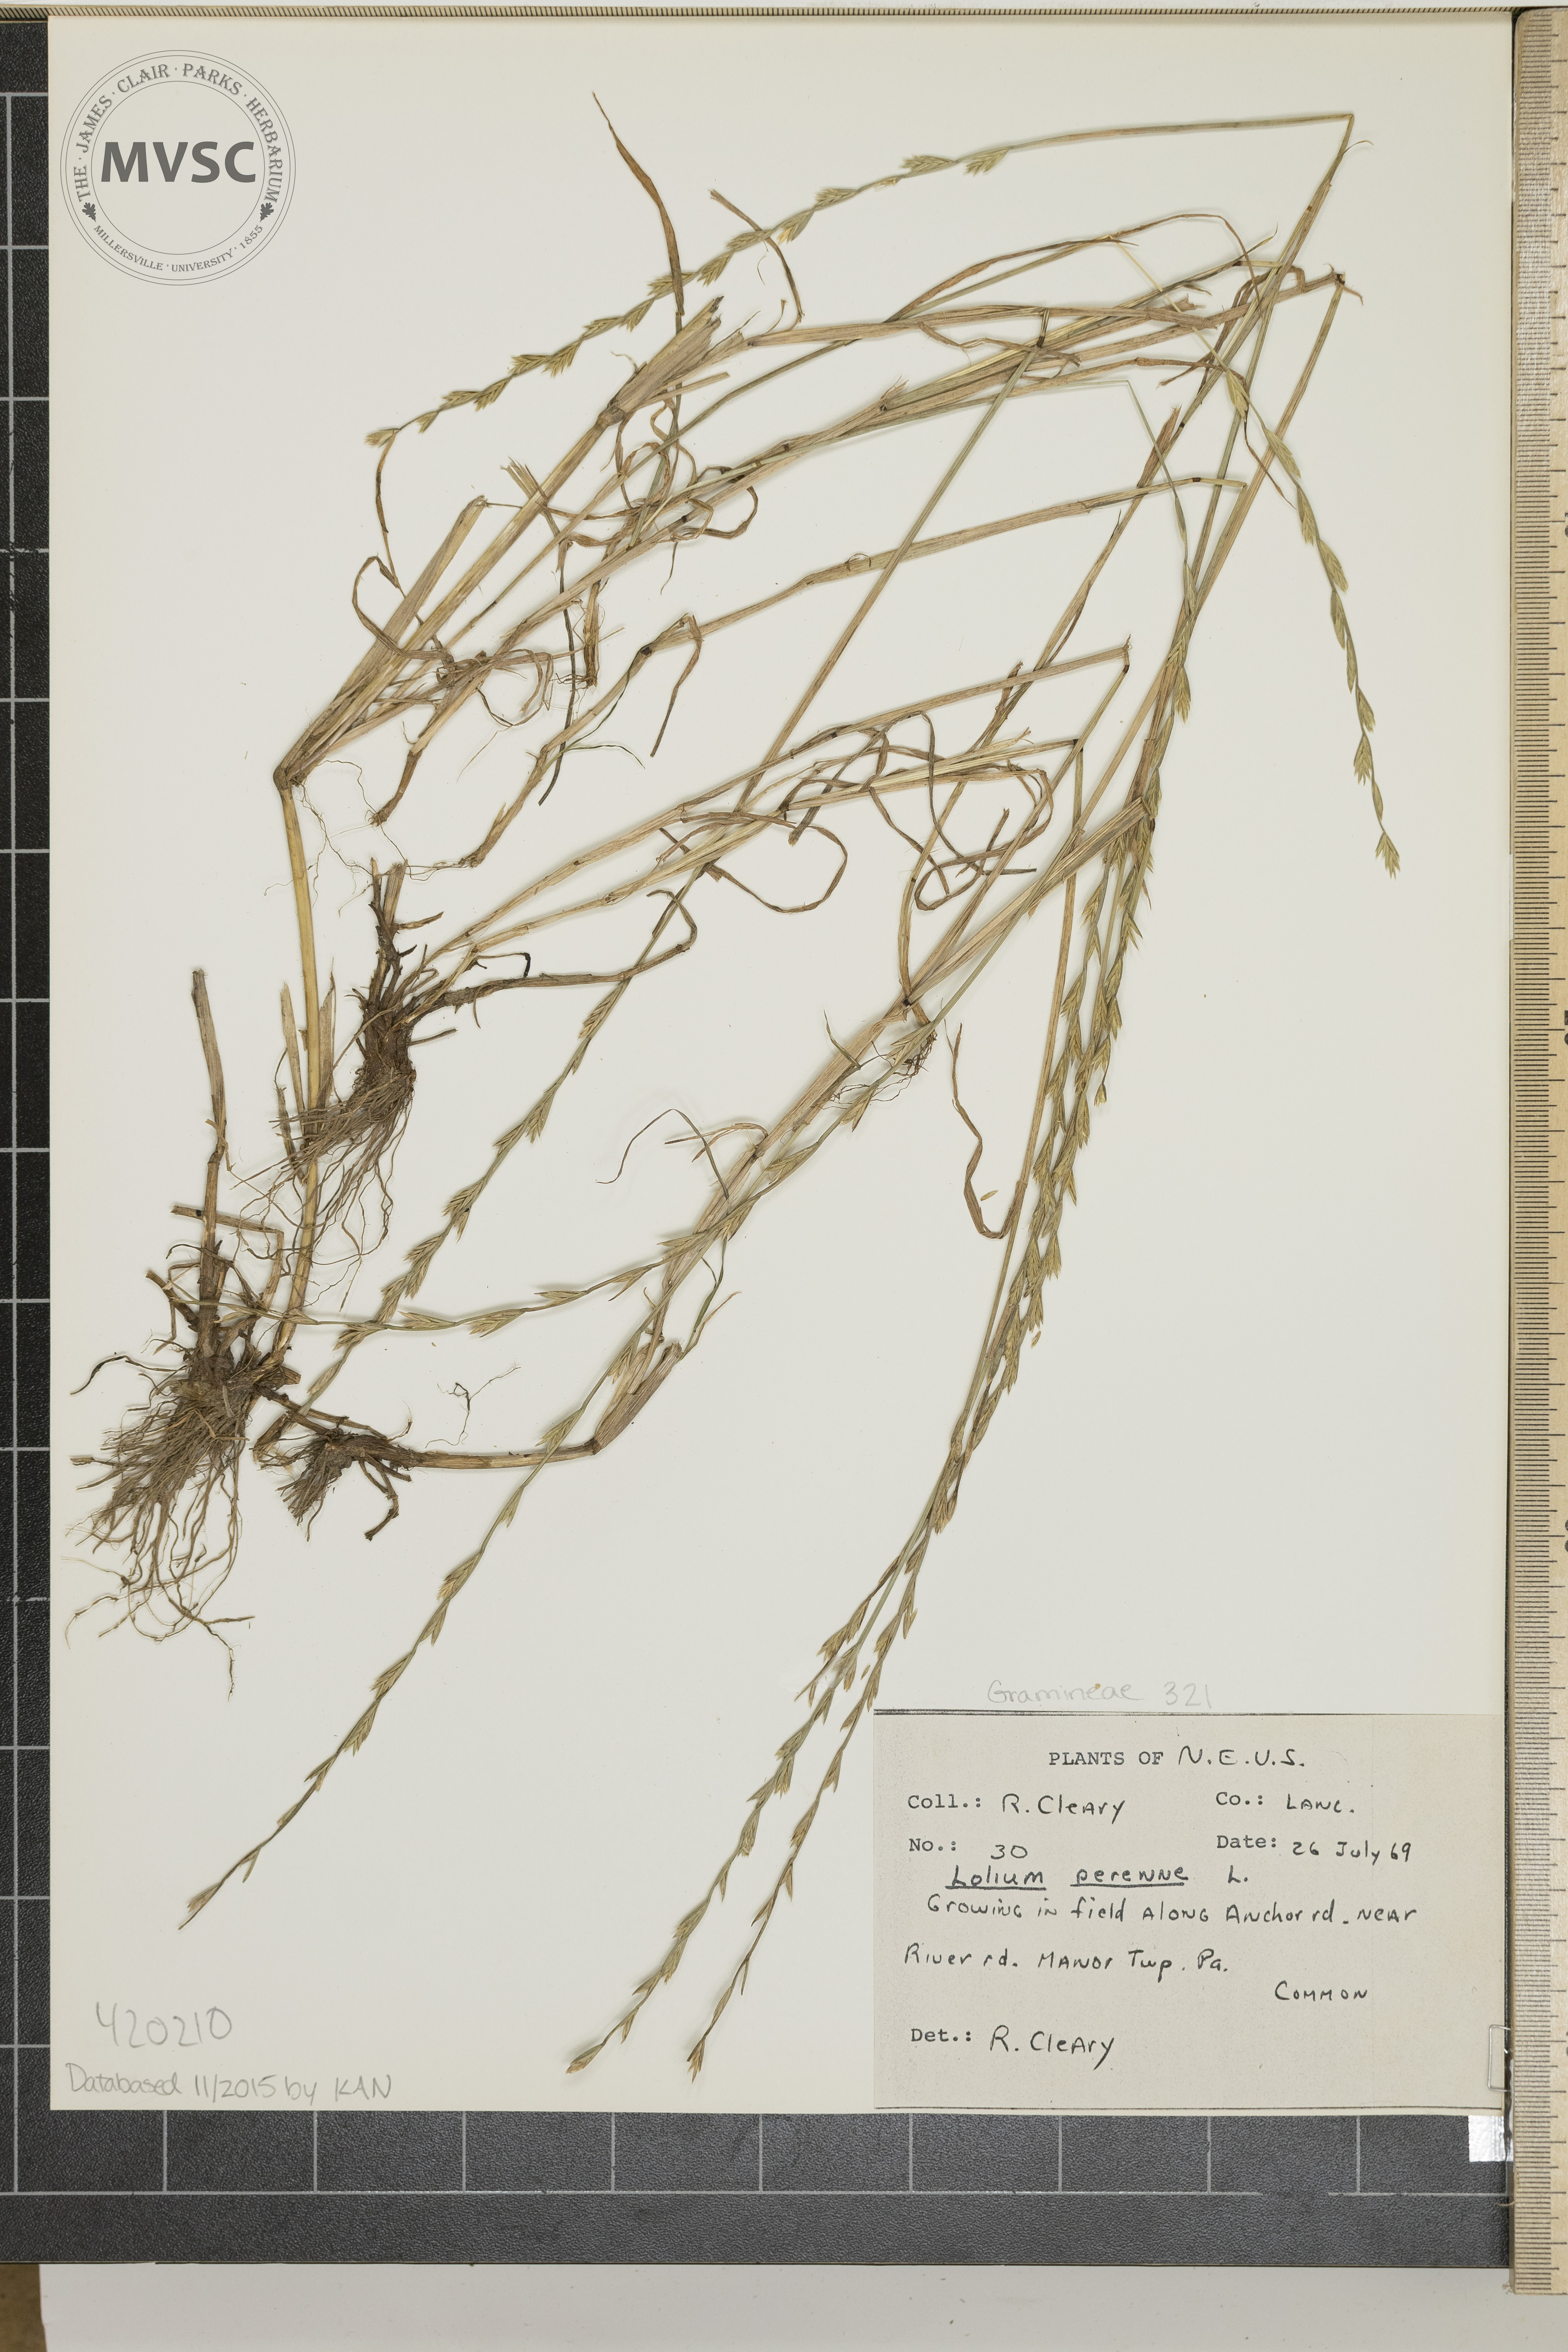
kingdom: Plantae
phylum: Tracheophyta
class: Liliopsida
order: Poales
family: Poaceae
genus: Lolium
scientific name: Lolium perenne
